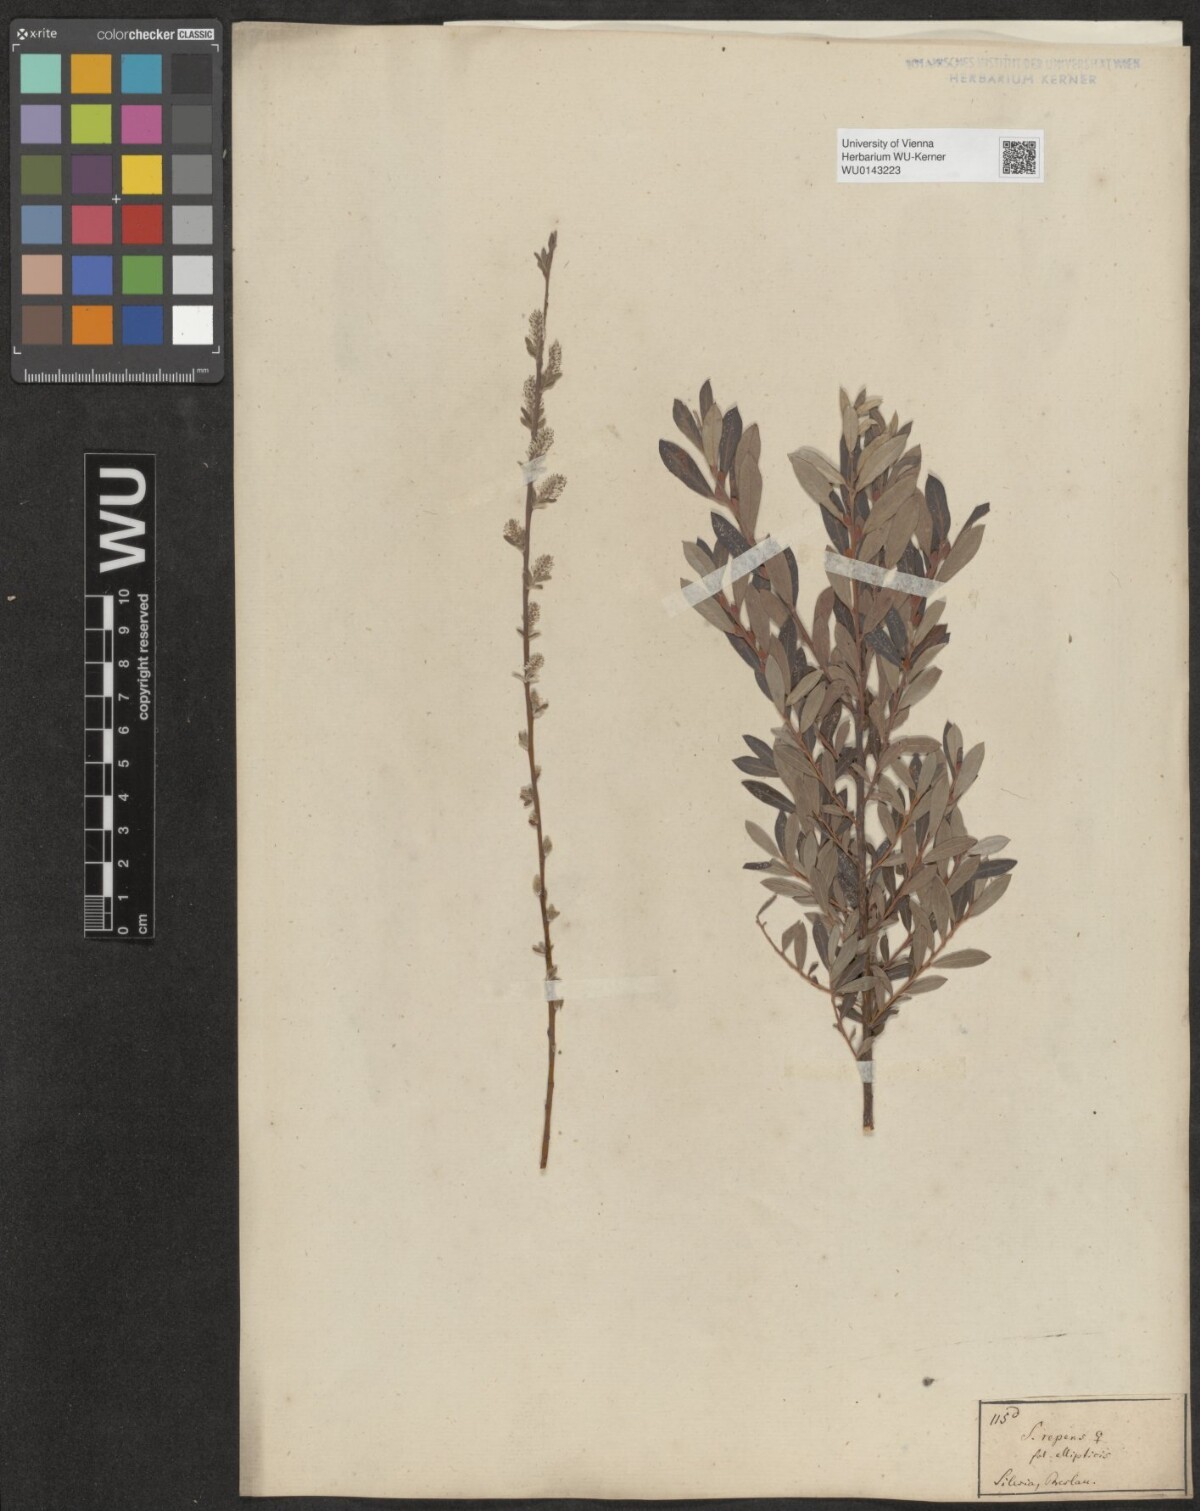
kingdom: Plantae
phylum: Tracheophyta
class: Magnoliopsida
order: Malpighiales
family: Salicaceae
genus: Salix
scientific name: Salix repens
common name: Creeping willow
